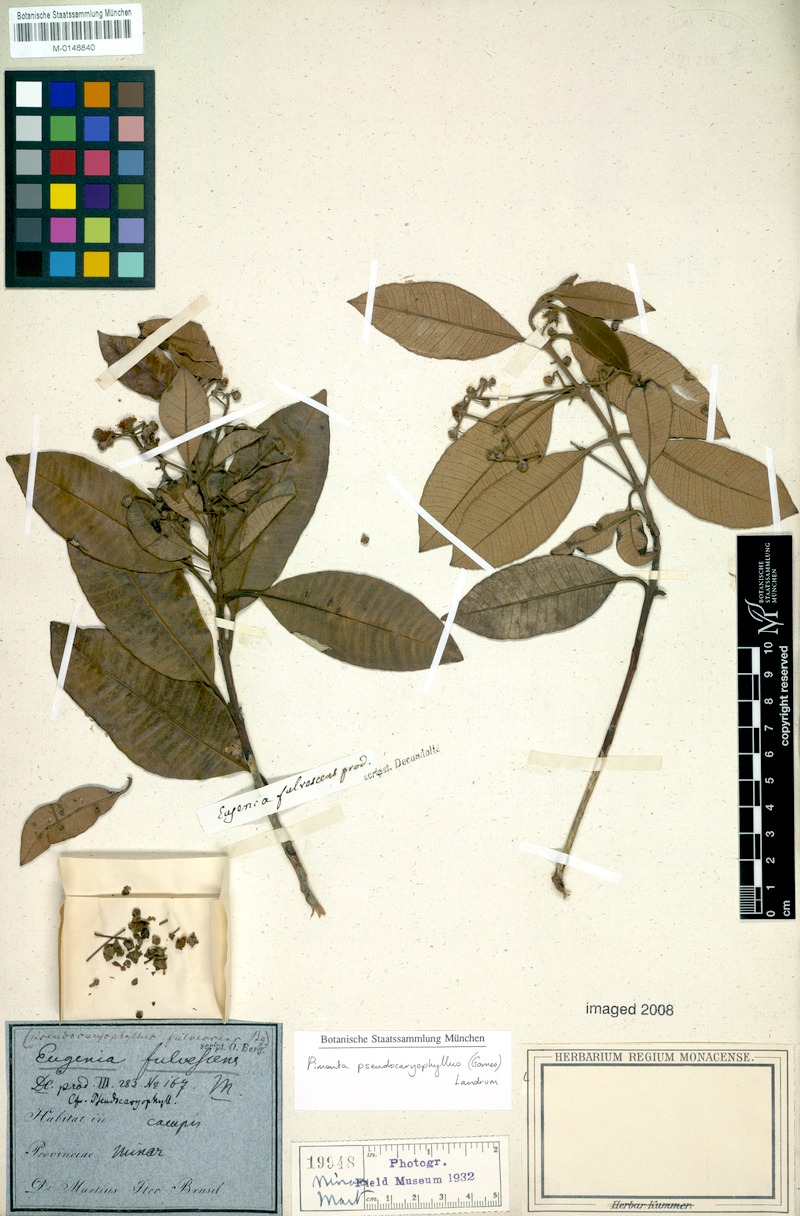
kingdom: Plantae
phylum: Tracheophyta
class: Magnoliopsida
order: Myrtales
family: Myrtaceae
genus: Pimenta
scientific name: Pimenta pseudocaryophyllus
